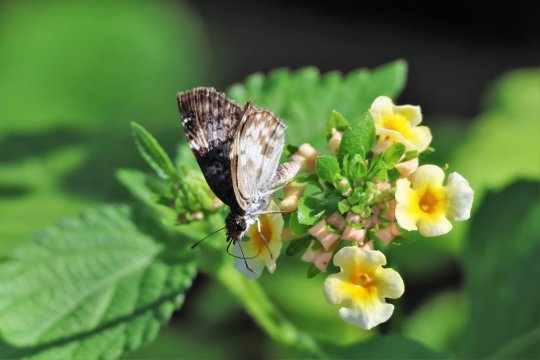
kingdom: Animalia
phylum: Arthropoda
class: Insecta
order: Lepidoptera
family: Hesperiidae
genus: Chiomara
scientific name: Chiomara asychis
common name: White-patched Skipper
